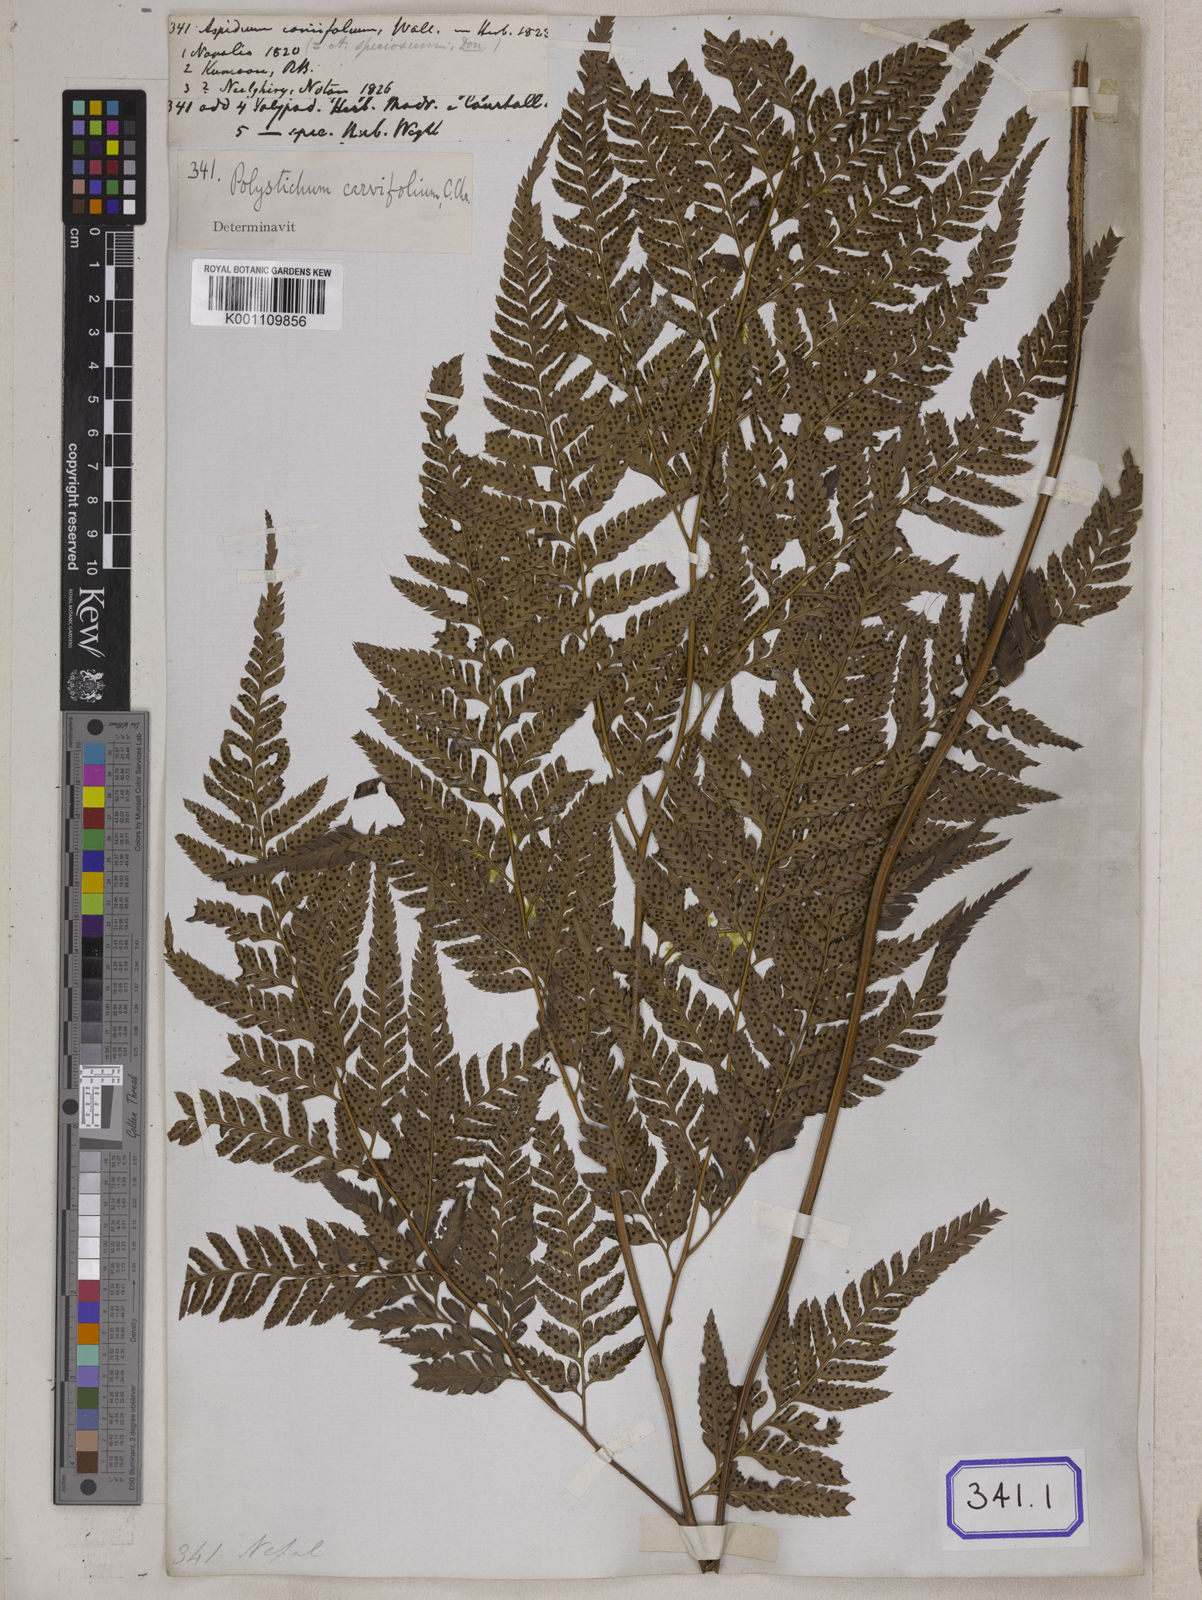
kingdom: Plantae
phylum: Tracheophyta
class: Polypodiopsida
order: Polypodiales
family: Dryopteridaceae
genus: Arachniodes
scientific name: Arachniodes coniifolia
